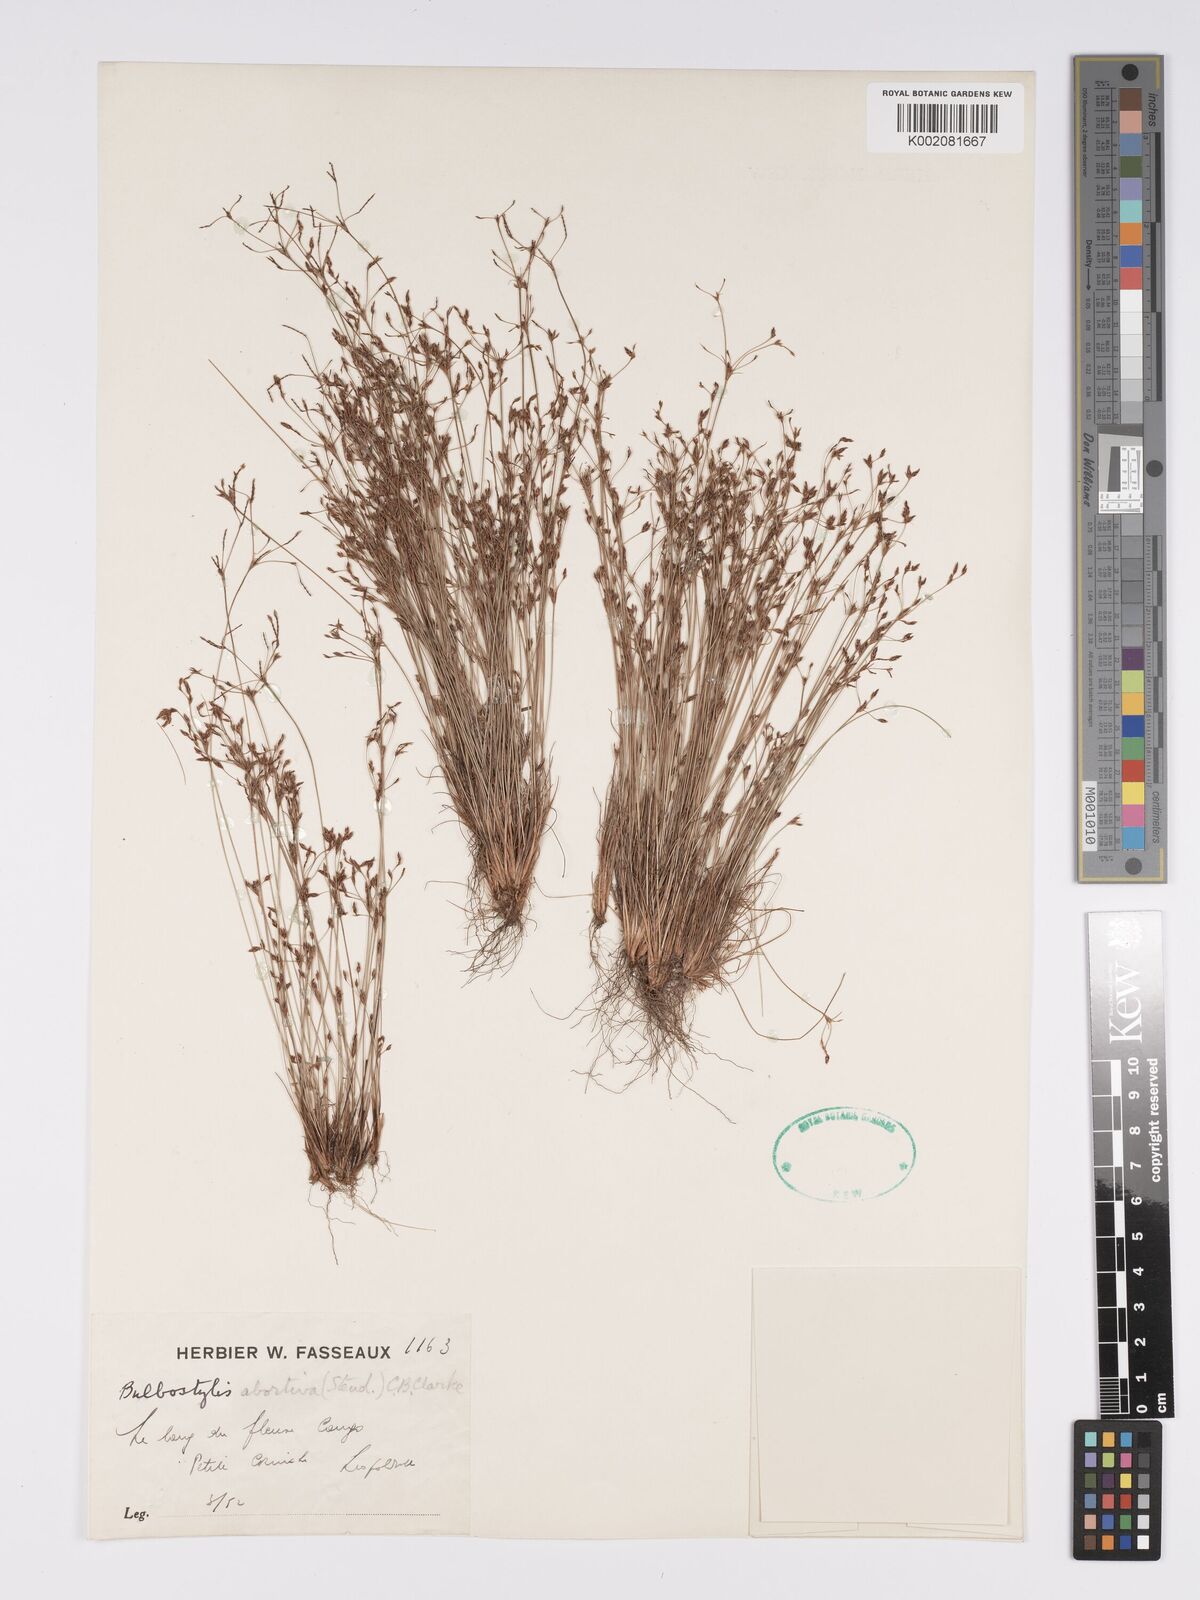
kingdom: Plantae
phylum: Tracheophyta
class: Liliopsida
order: Poales
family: Cyperaceae
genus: Bulbostylis
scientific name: Bulbostylis abortiva
